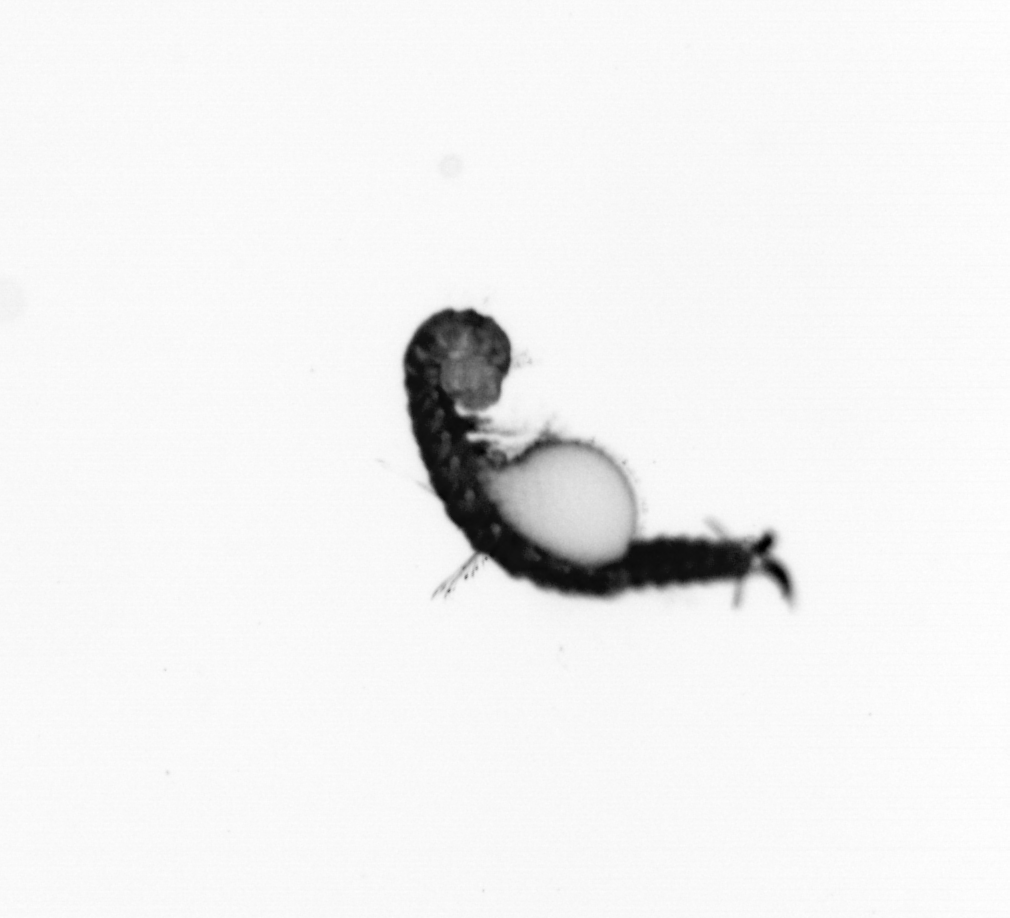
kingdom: Animalia
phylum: Annelida
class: Polychaeta
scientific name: Polychaeta
